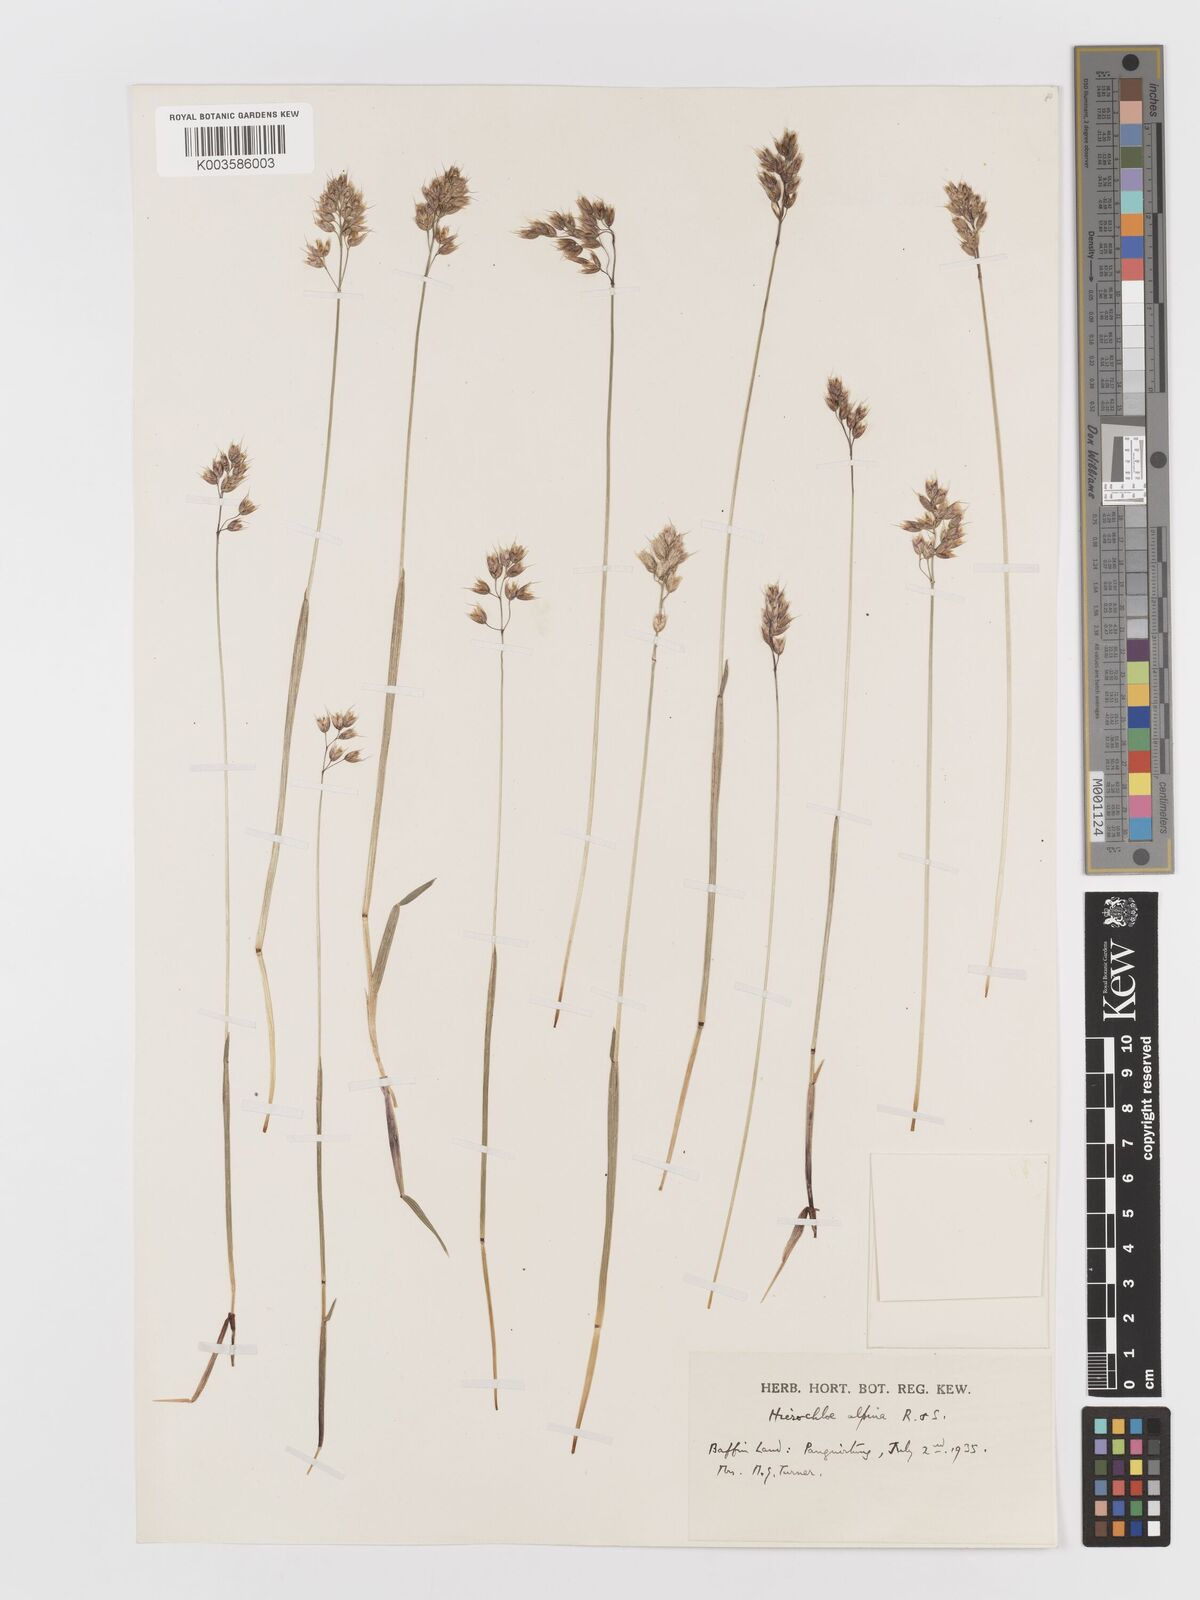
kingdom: Plantae
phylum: Tracheophyta
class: Liliopsida
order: Poales
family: Poaceae
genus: Anthoxanthum
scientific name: Anthoxanthum monticola
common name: Alpine sweetgrass
